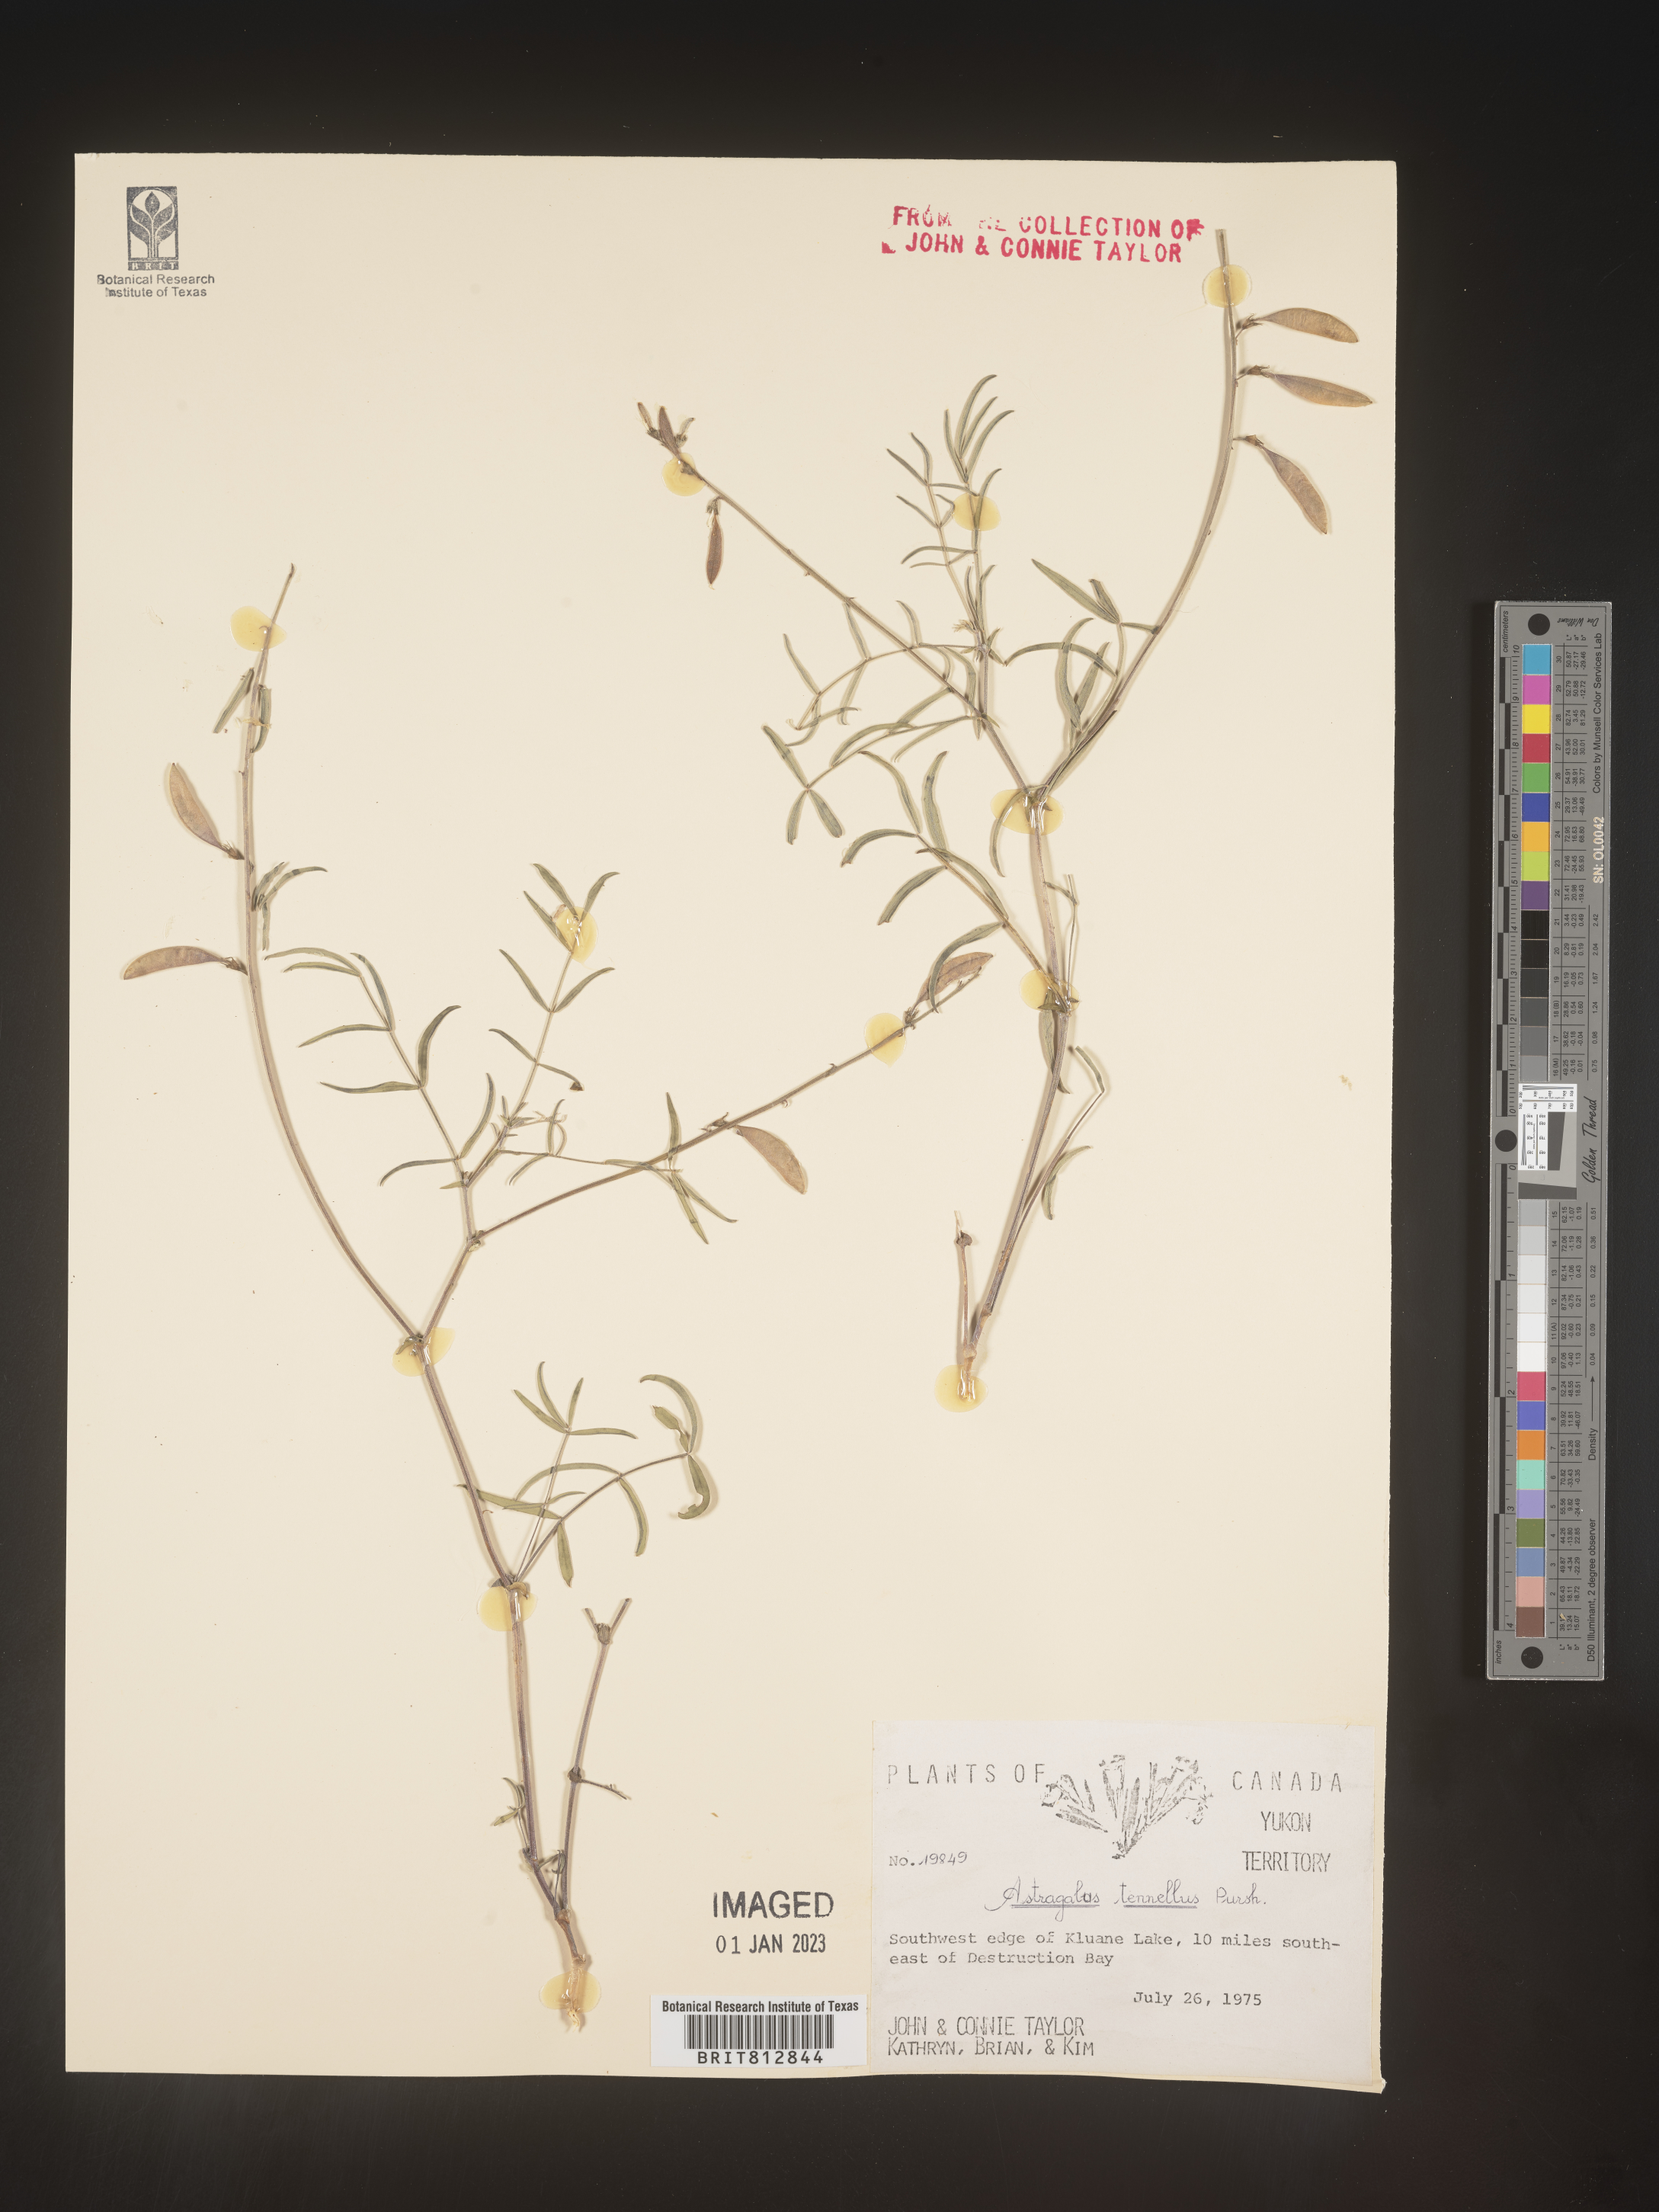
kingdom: Plantae
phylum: Tracheophyta
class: Magnoliopsida
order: Fabales
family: Fabaceae
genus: Astragalus
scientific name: Astragalus tenellus
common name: Pulse milk-vetch
